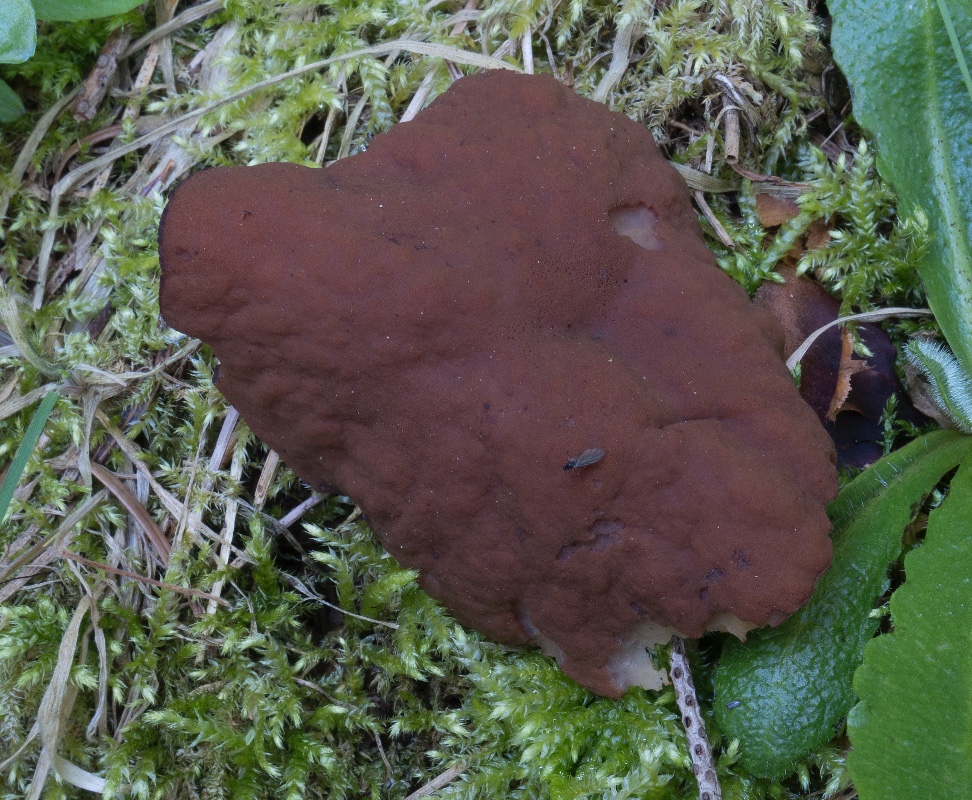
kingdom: Fungi
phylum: Ascomycota
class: Pezizomycetes
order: Pezizales
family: Discinaceae
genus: Discina
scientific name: Discina ancilis
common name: udbredt stenmorkel
